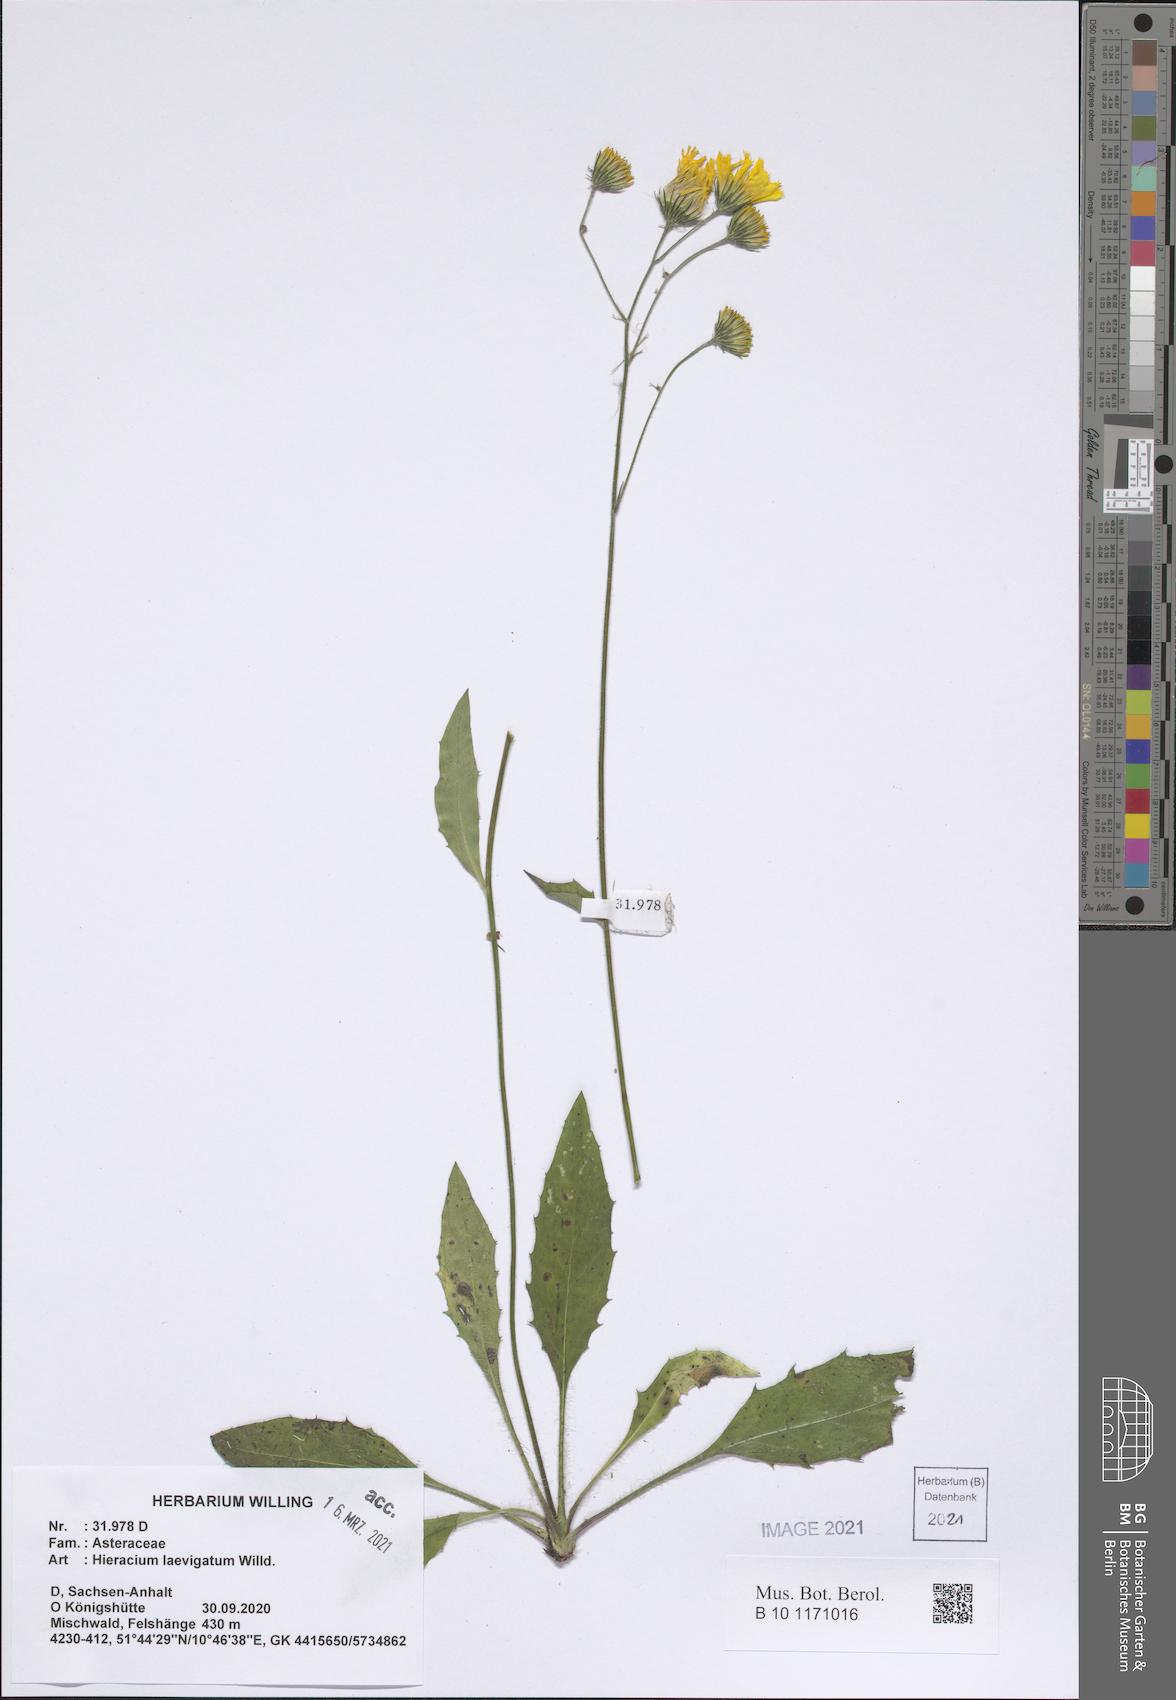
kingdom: Plantae
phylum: Tracheophyta
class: Magnoliopsida
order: Asterales
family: Asteraceae
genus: Hieracium
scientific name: Hieracium laevigatum
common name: Smooth hawkweed
